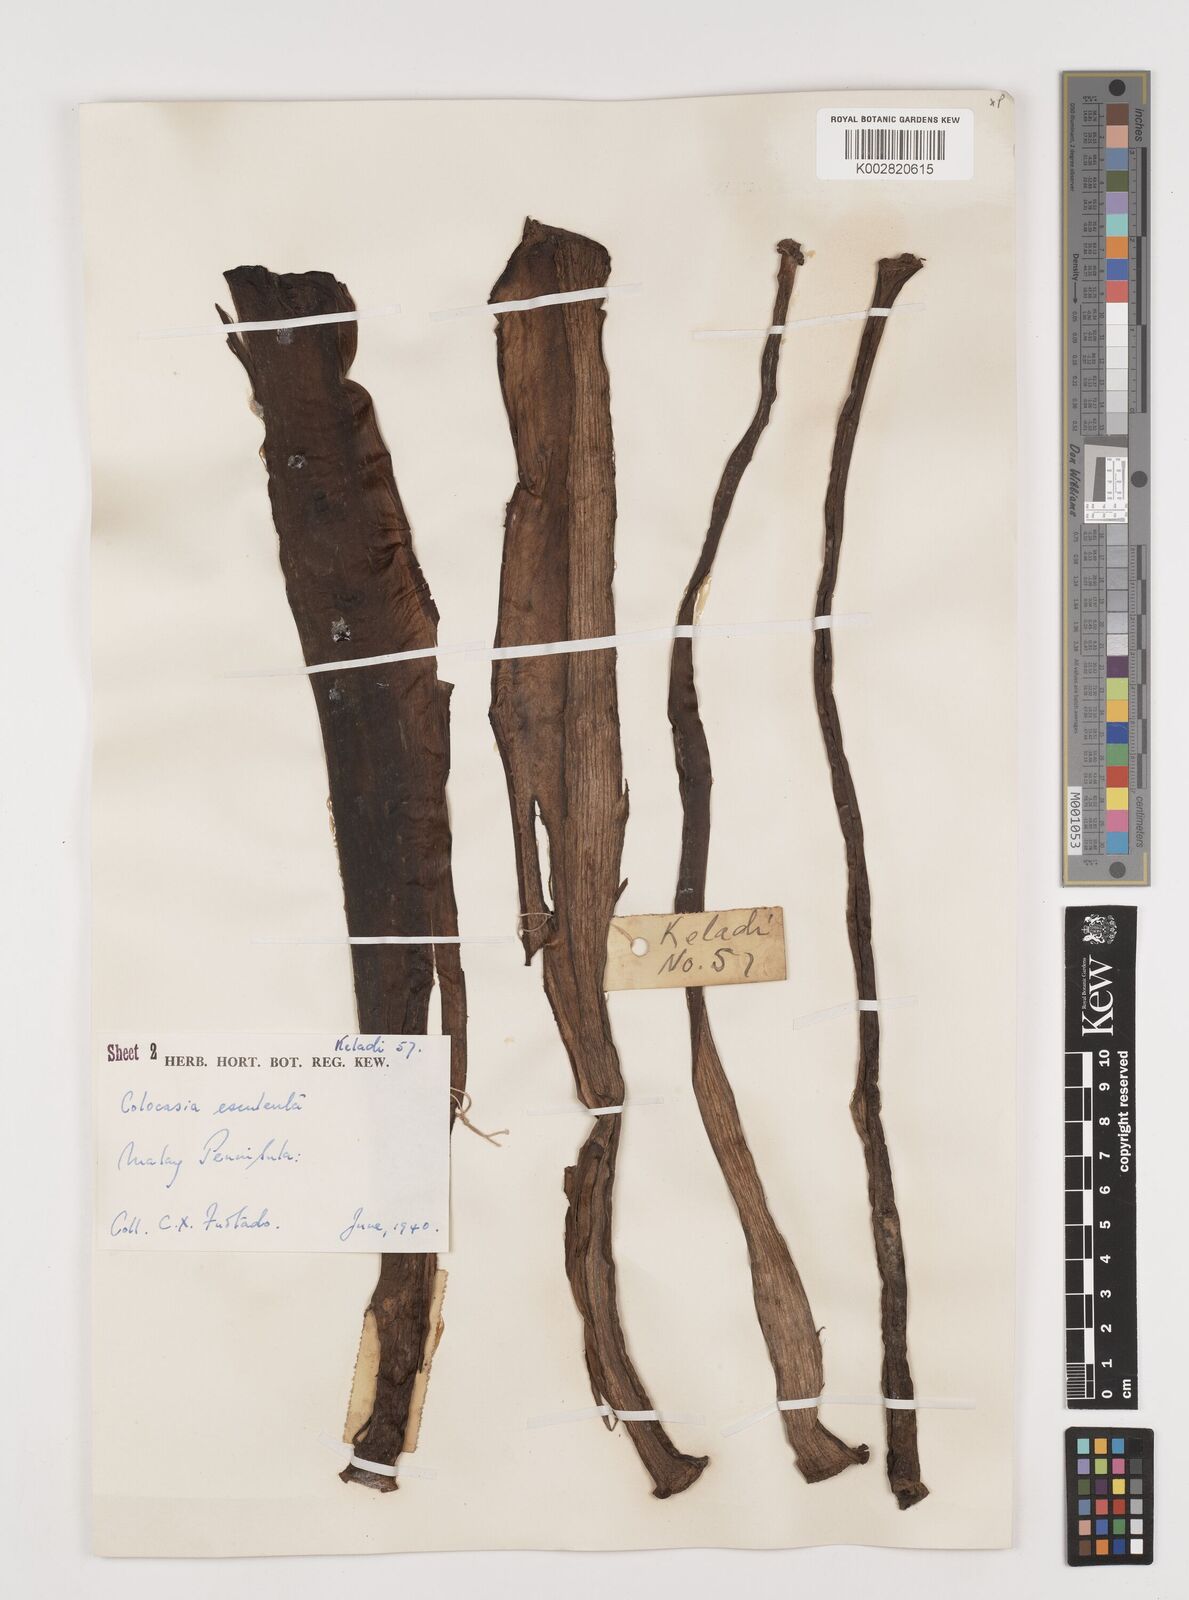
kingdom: Plantae
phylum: Tracheophyta
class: Liliopsida
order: Alismatales
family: Araceae
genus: Colocasia
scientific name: Colocasia esculenta
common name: Taro
